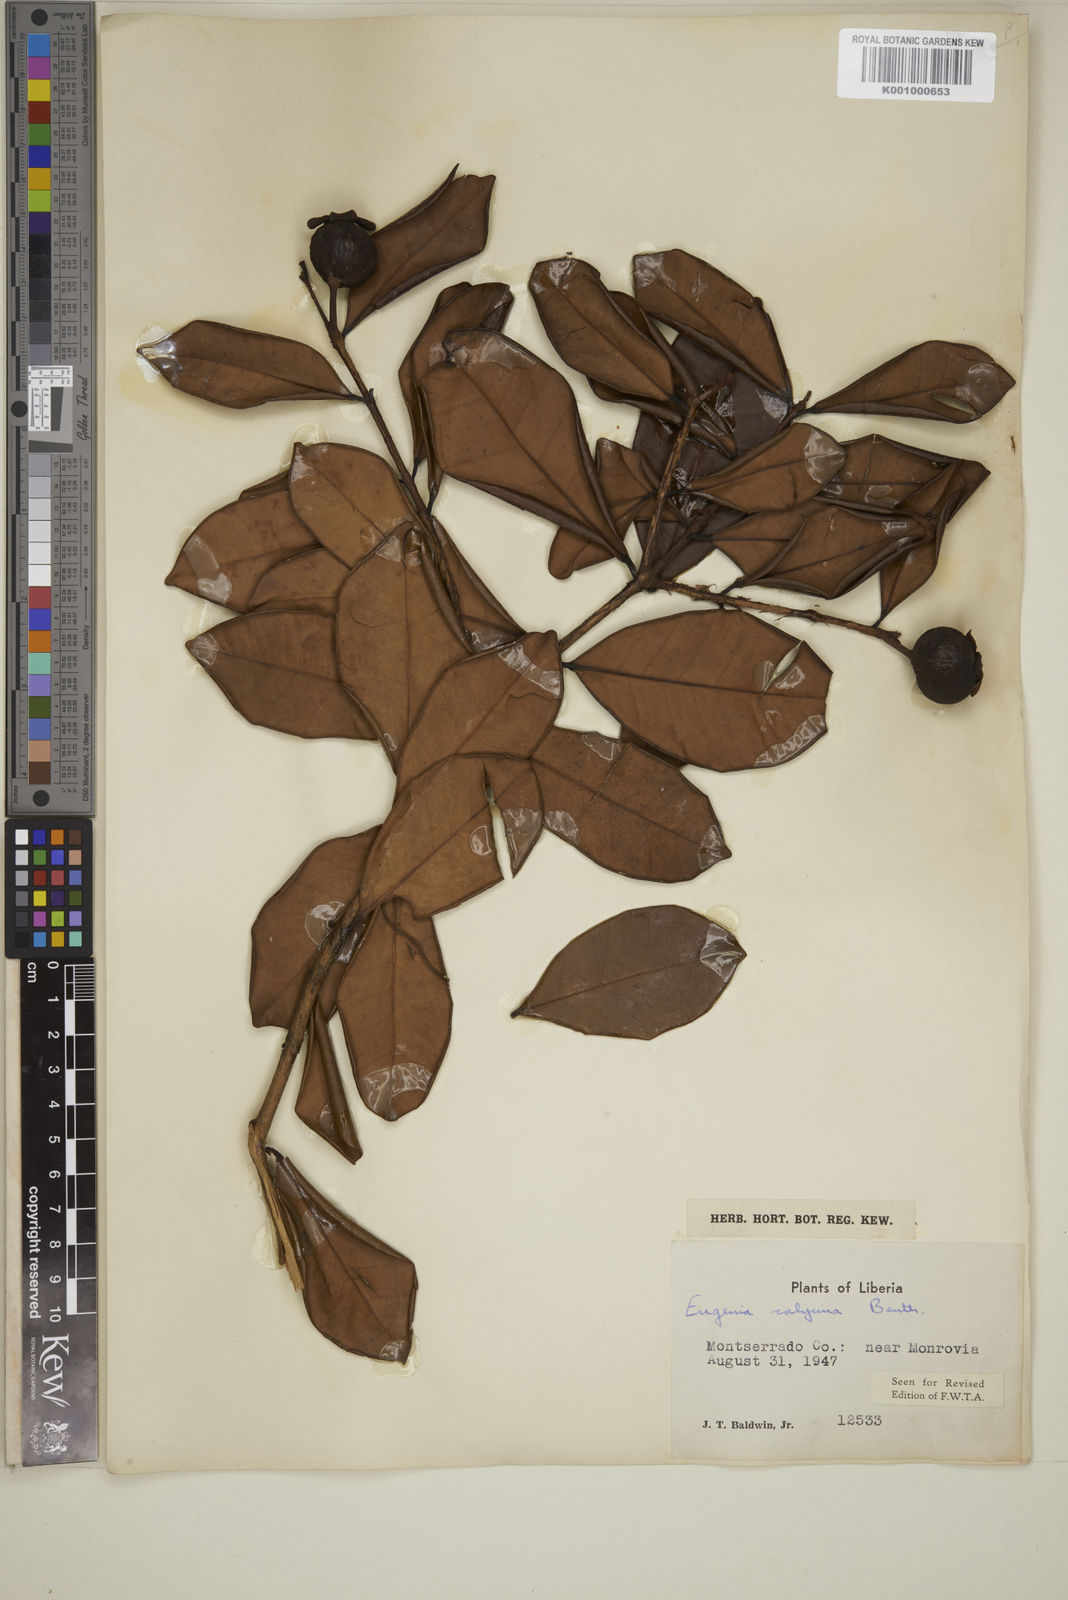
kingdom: Plantae
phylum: Tracheophyta
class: Magnoliopsida
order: Myrtales
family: Myrtaceae
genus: Eugenia
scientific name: Eugenia liberiana
